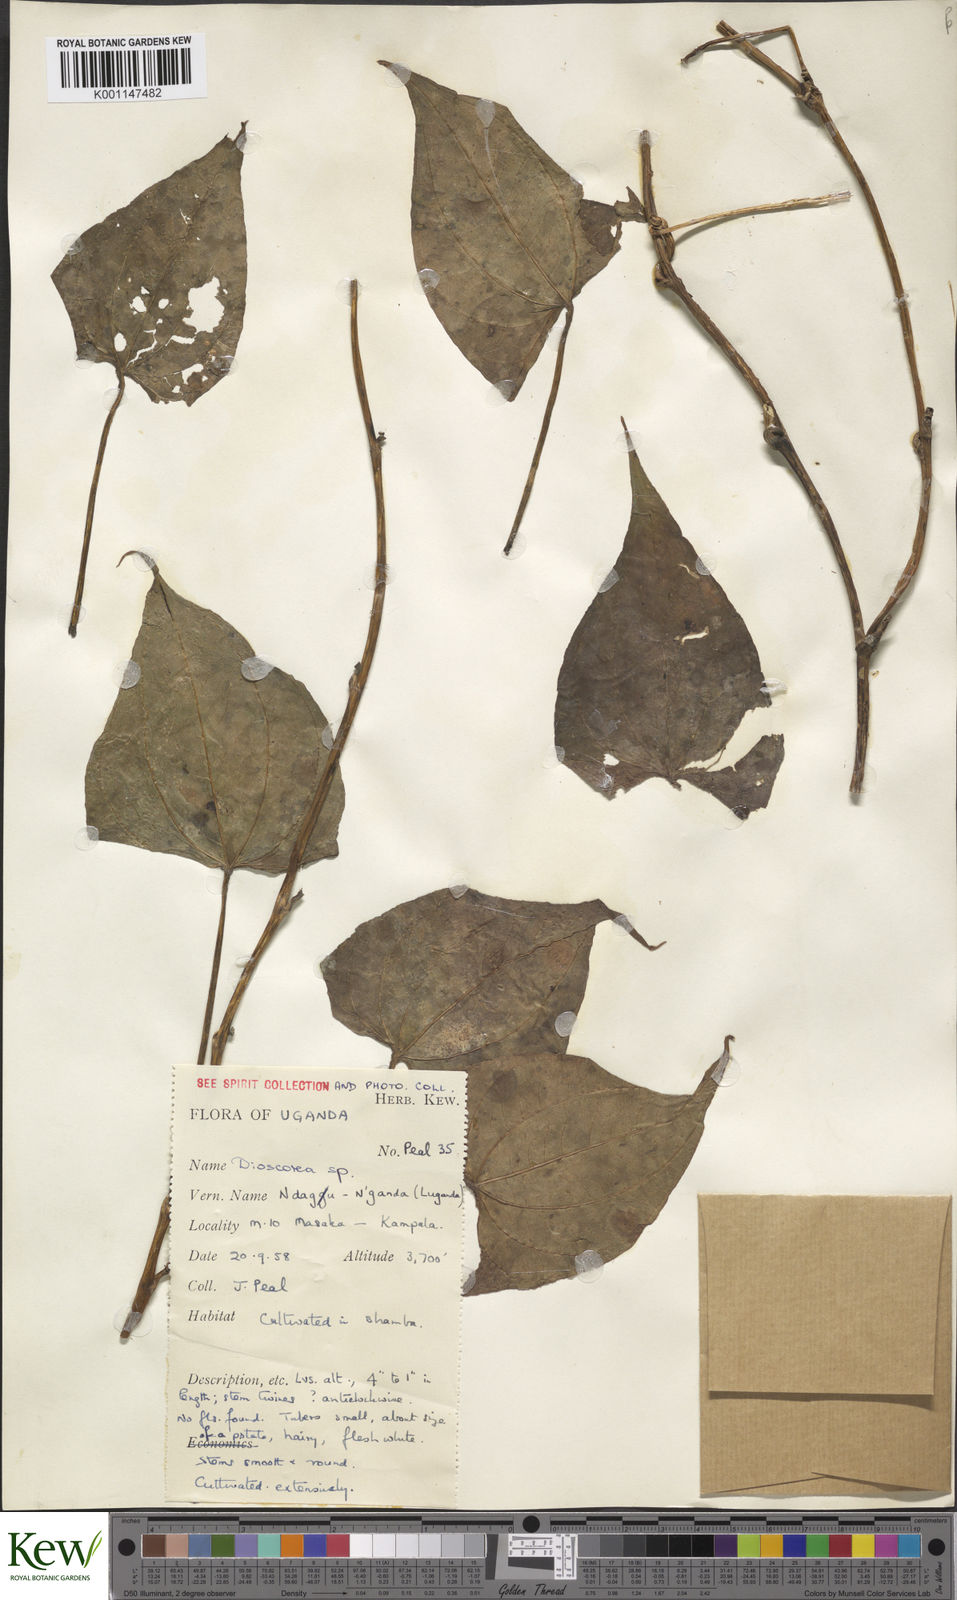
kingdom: Plantae
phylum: Tracheophyta
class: Liliopsida
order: Dioscoreales
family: Dioscoreaceae
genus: Dioscorea
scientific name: Dioscorea
